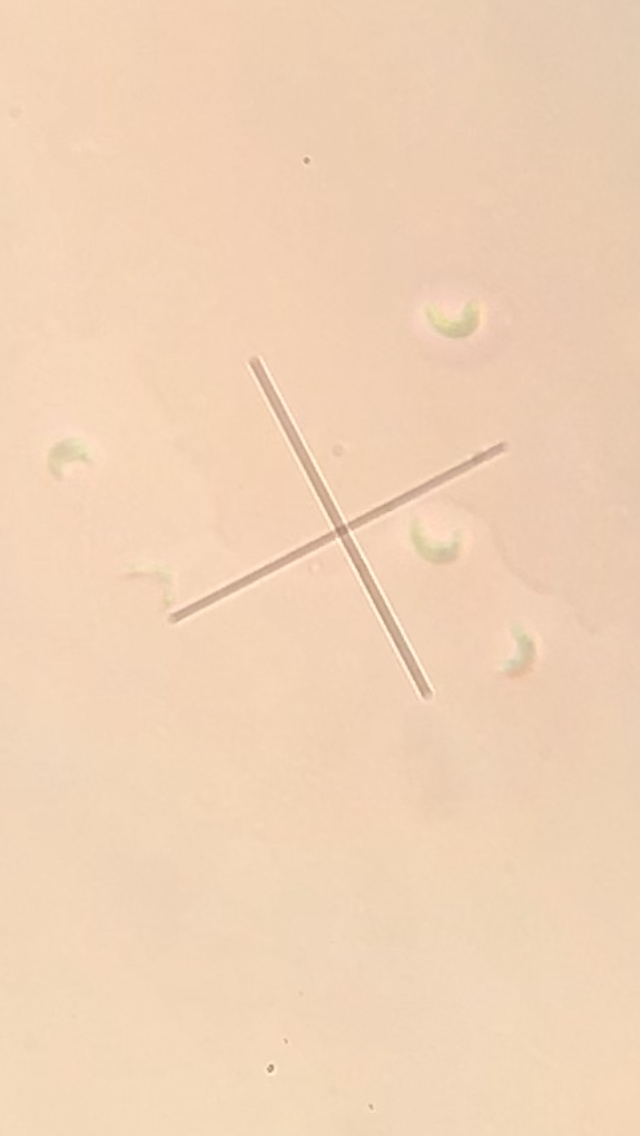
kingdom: Fungi
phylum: Basidiomycota
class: Agaricomycetes
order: Polyporales
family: Incrustoporiaceae
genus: Skeletocutis
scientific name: Skeletocutis carneogrisea
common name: rødgrå krystalporesvamp
